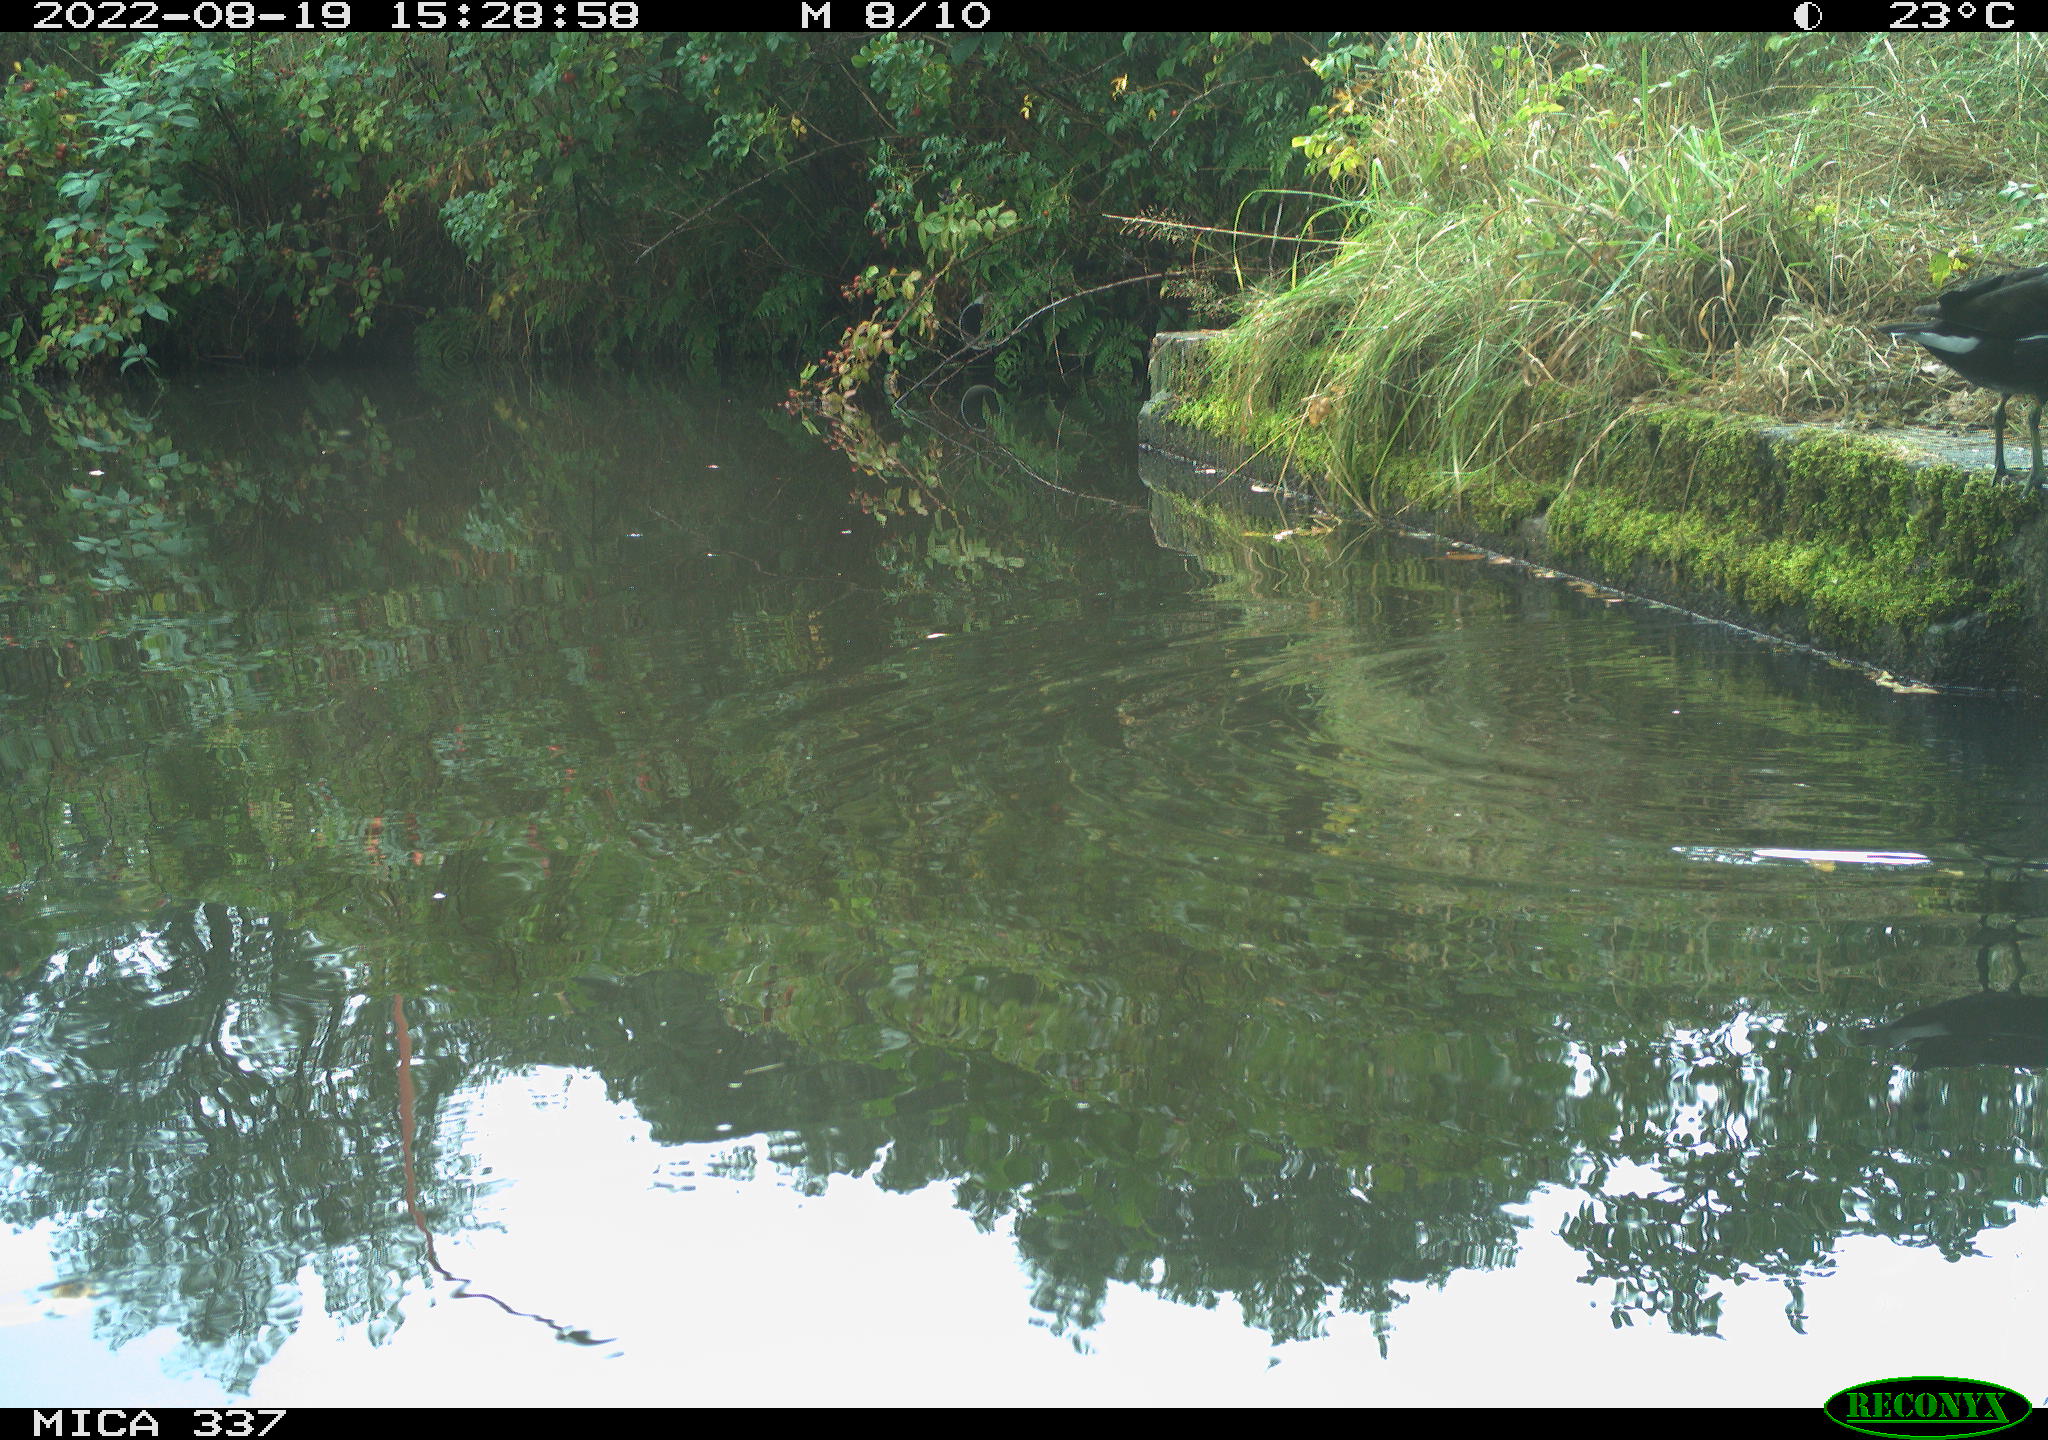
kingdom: Animalia
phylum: Chordata
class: Aves
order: Gruiformes
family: Rallidae
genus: Gallinula
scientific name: Gallinula chloropus
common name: Common moorhen
